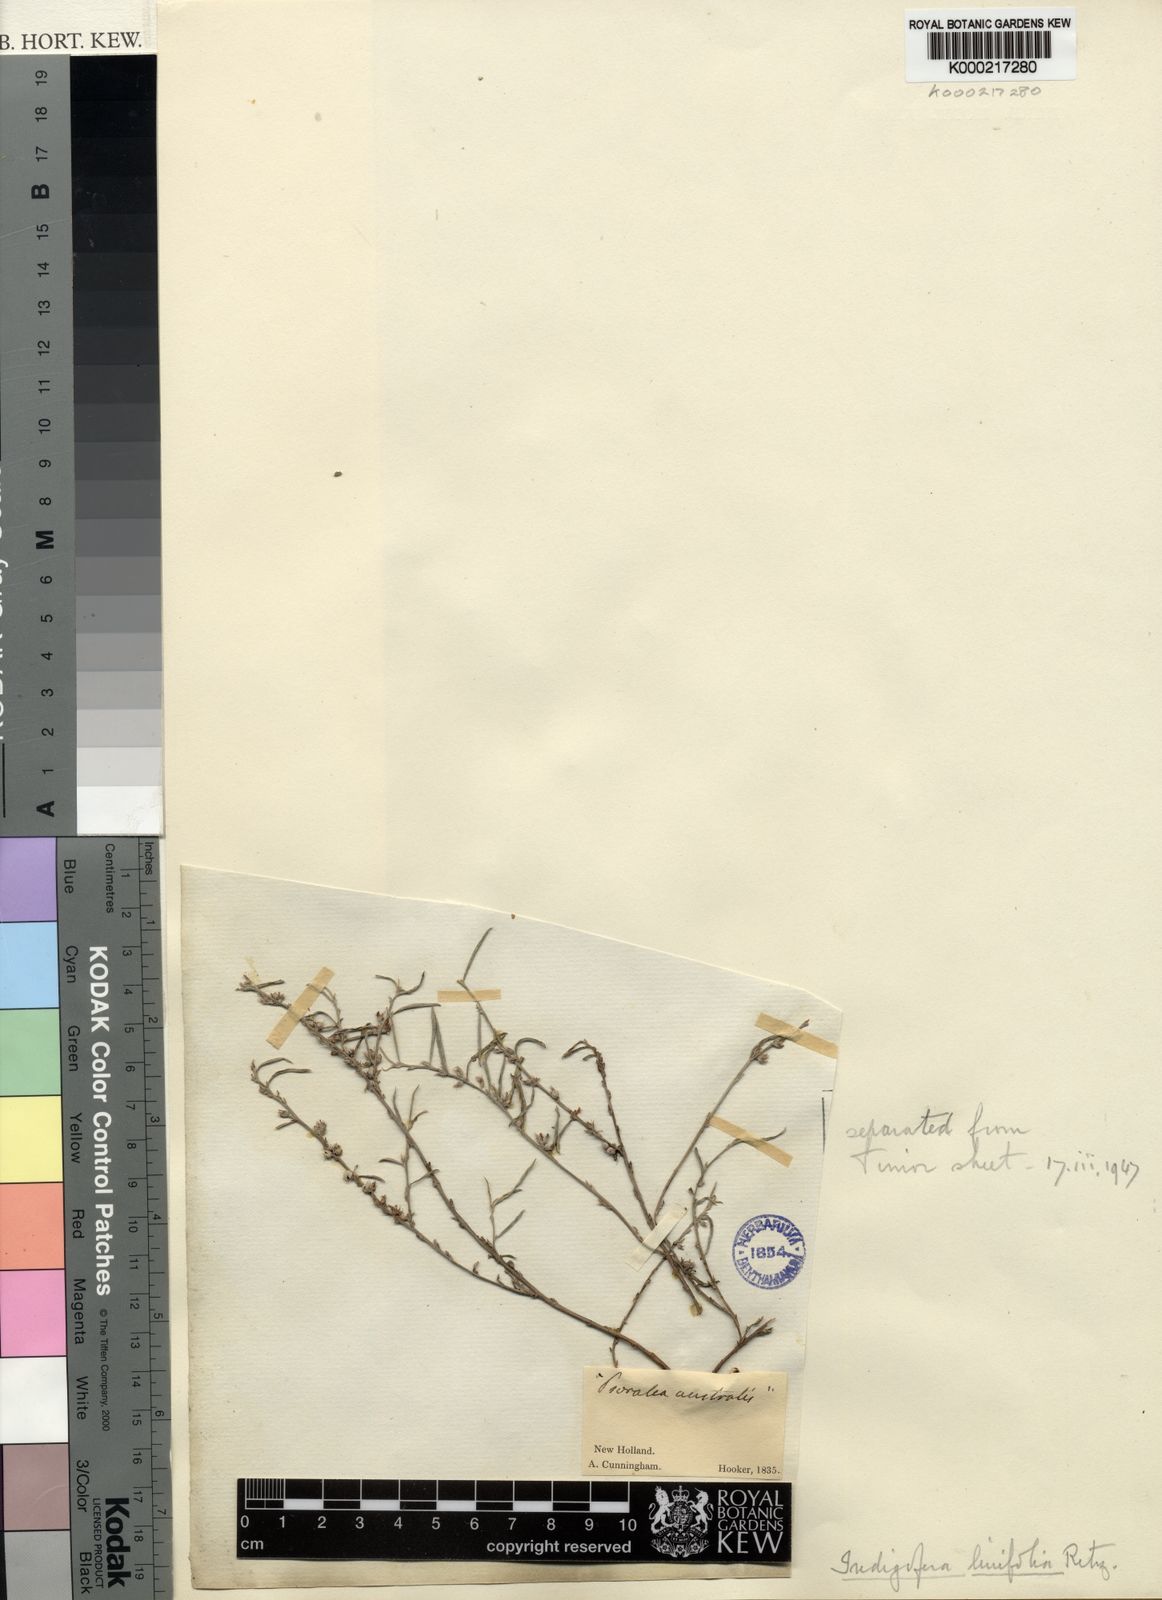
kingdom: Plantae
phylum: Tracheophyta
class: Magnoliopsida
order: Fabales
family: Fabaceae
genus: Indigofera
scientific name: Indigofera linifolia
